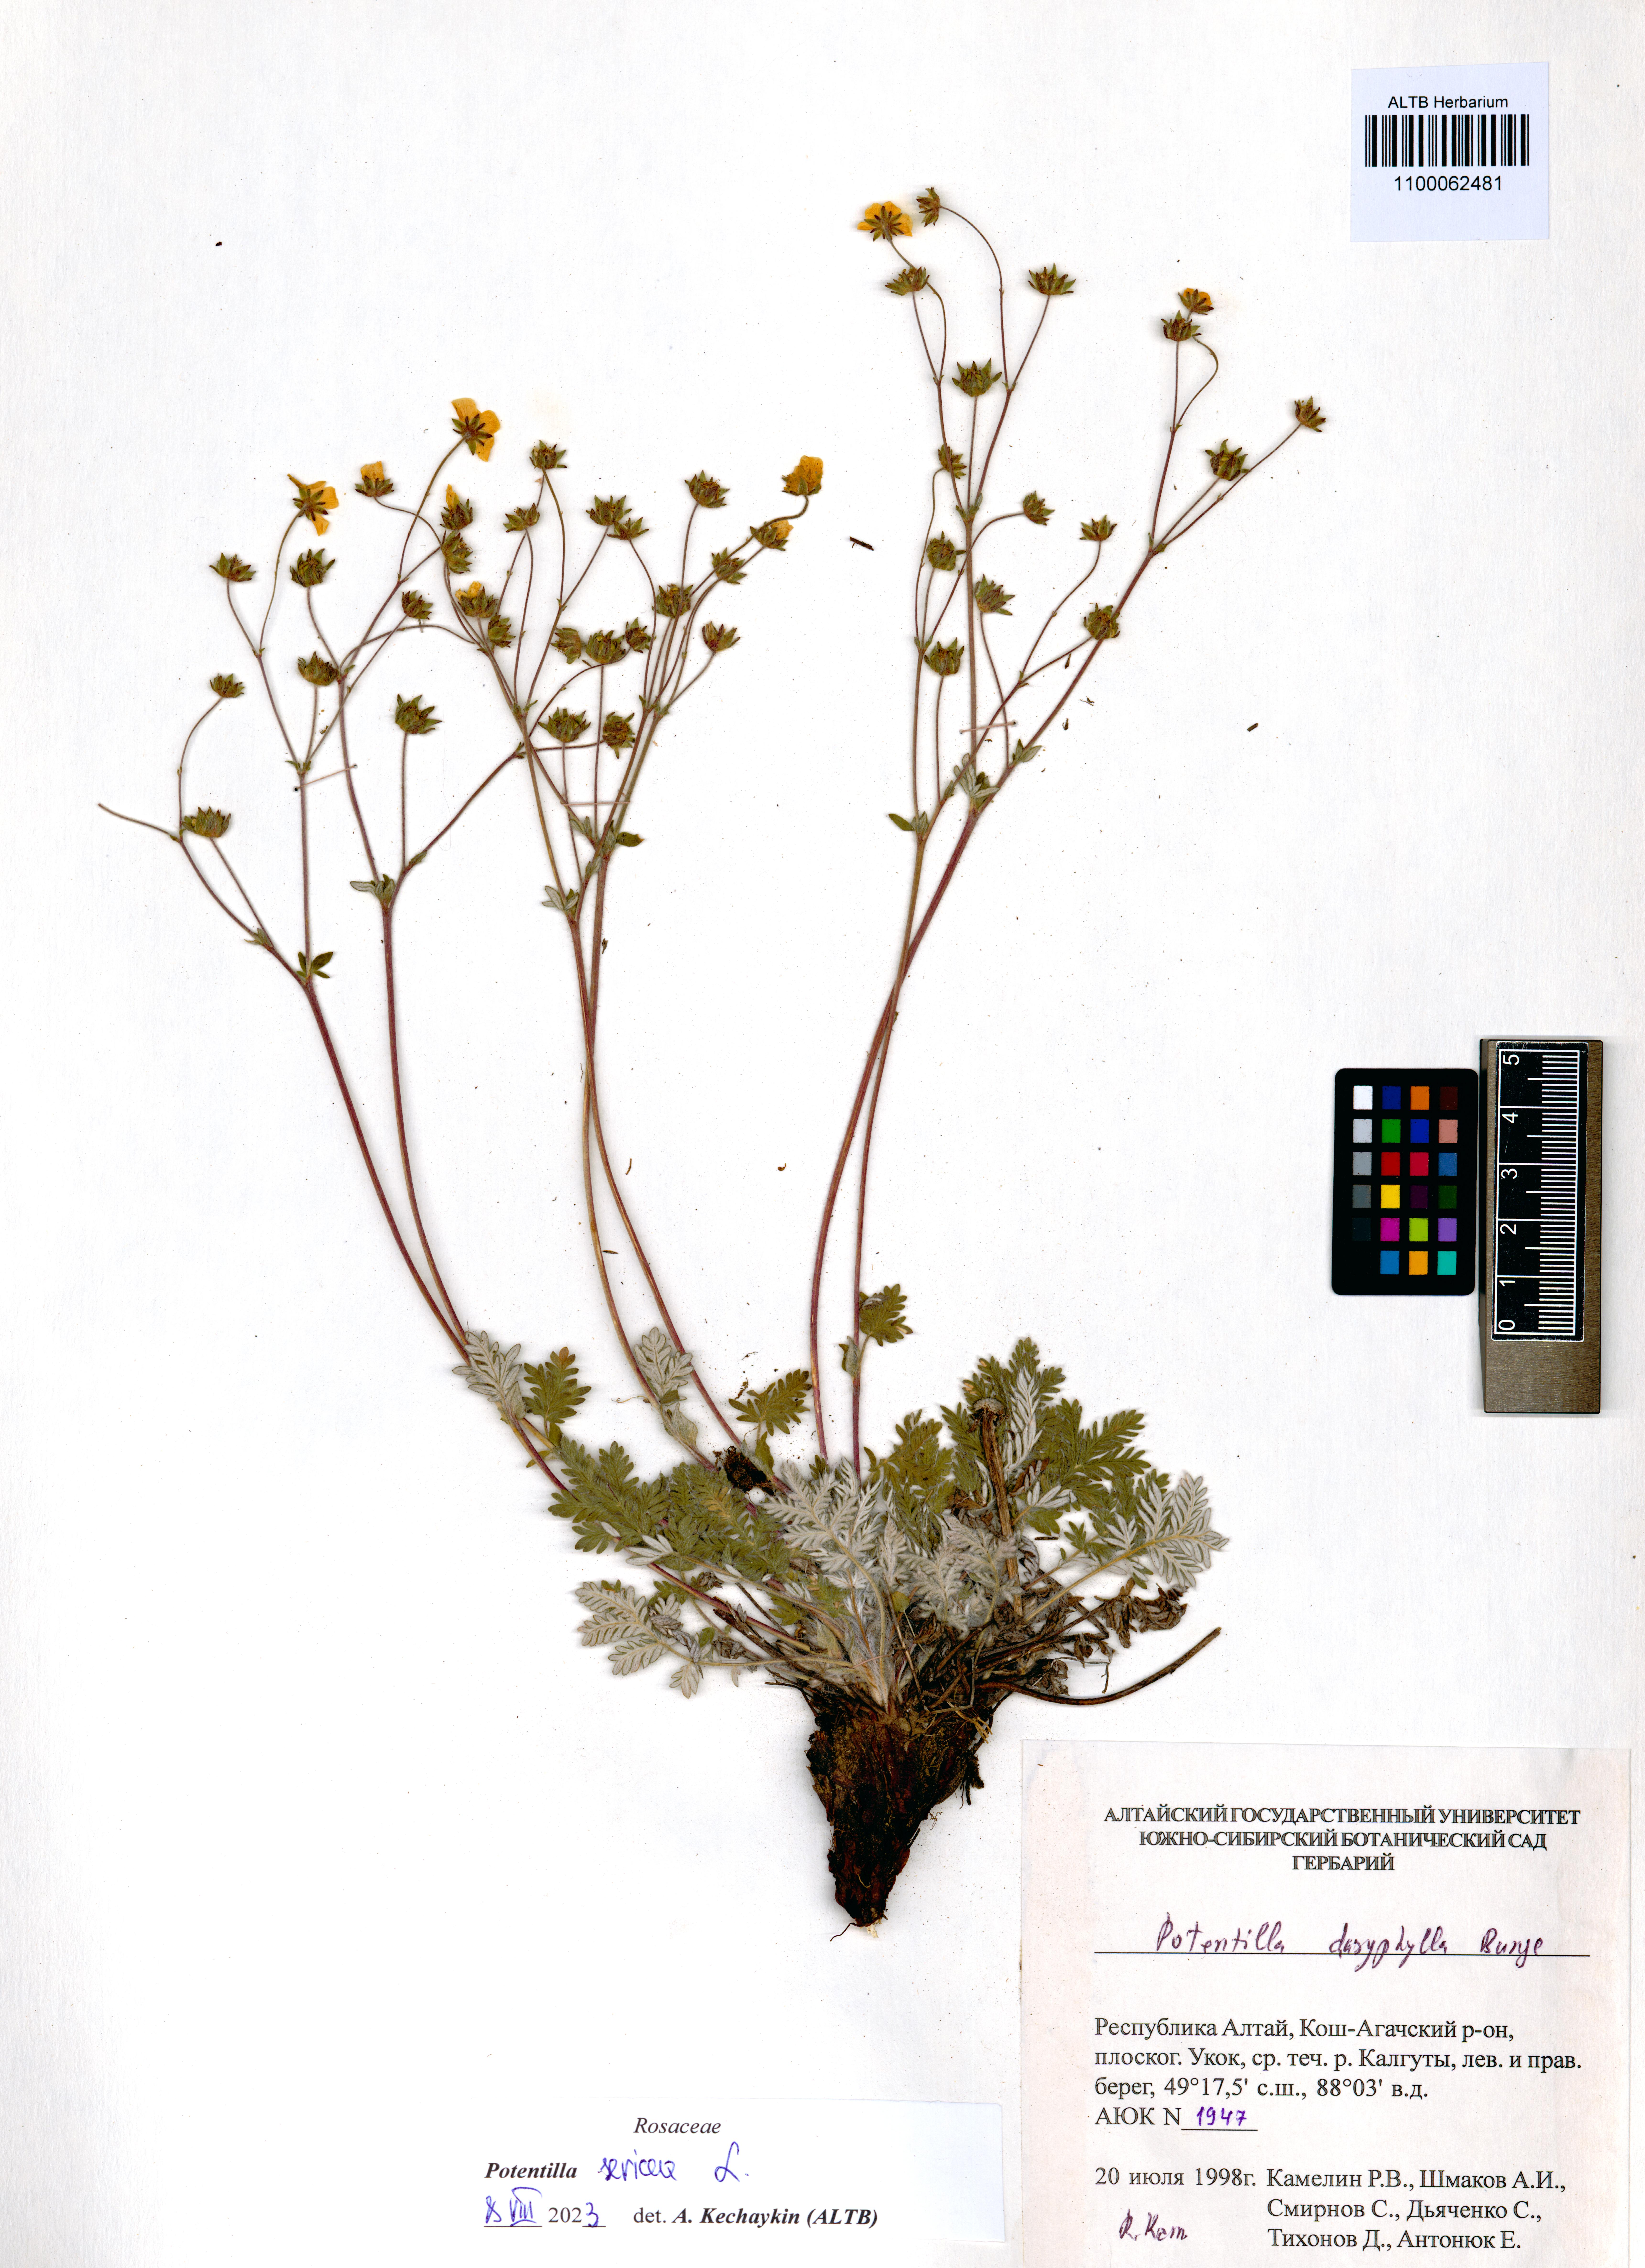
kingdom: Plantae
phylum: Tracheophyta
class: Magnoliopsida
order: Rosales
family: Rosaceae
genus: Potentilla
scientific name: Potentilla sericea
